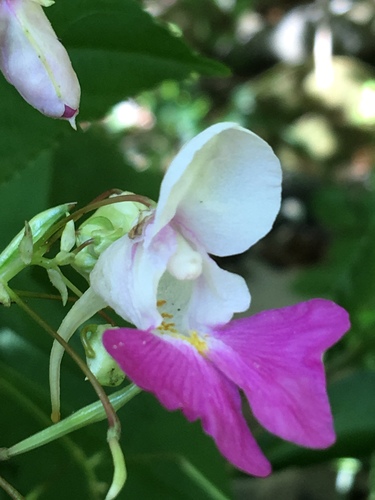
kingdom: Plantae
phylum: Tracheophyta
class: Magnoliopsida
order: Ericales
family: Balsaminaceae
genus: Impatiens
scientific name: Impatiens balfourii
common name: Balfour's touch-me-not
